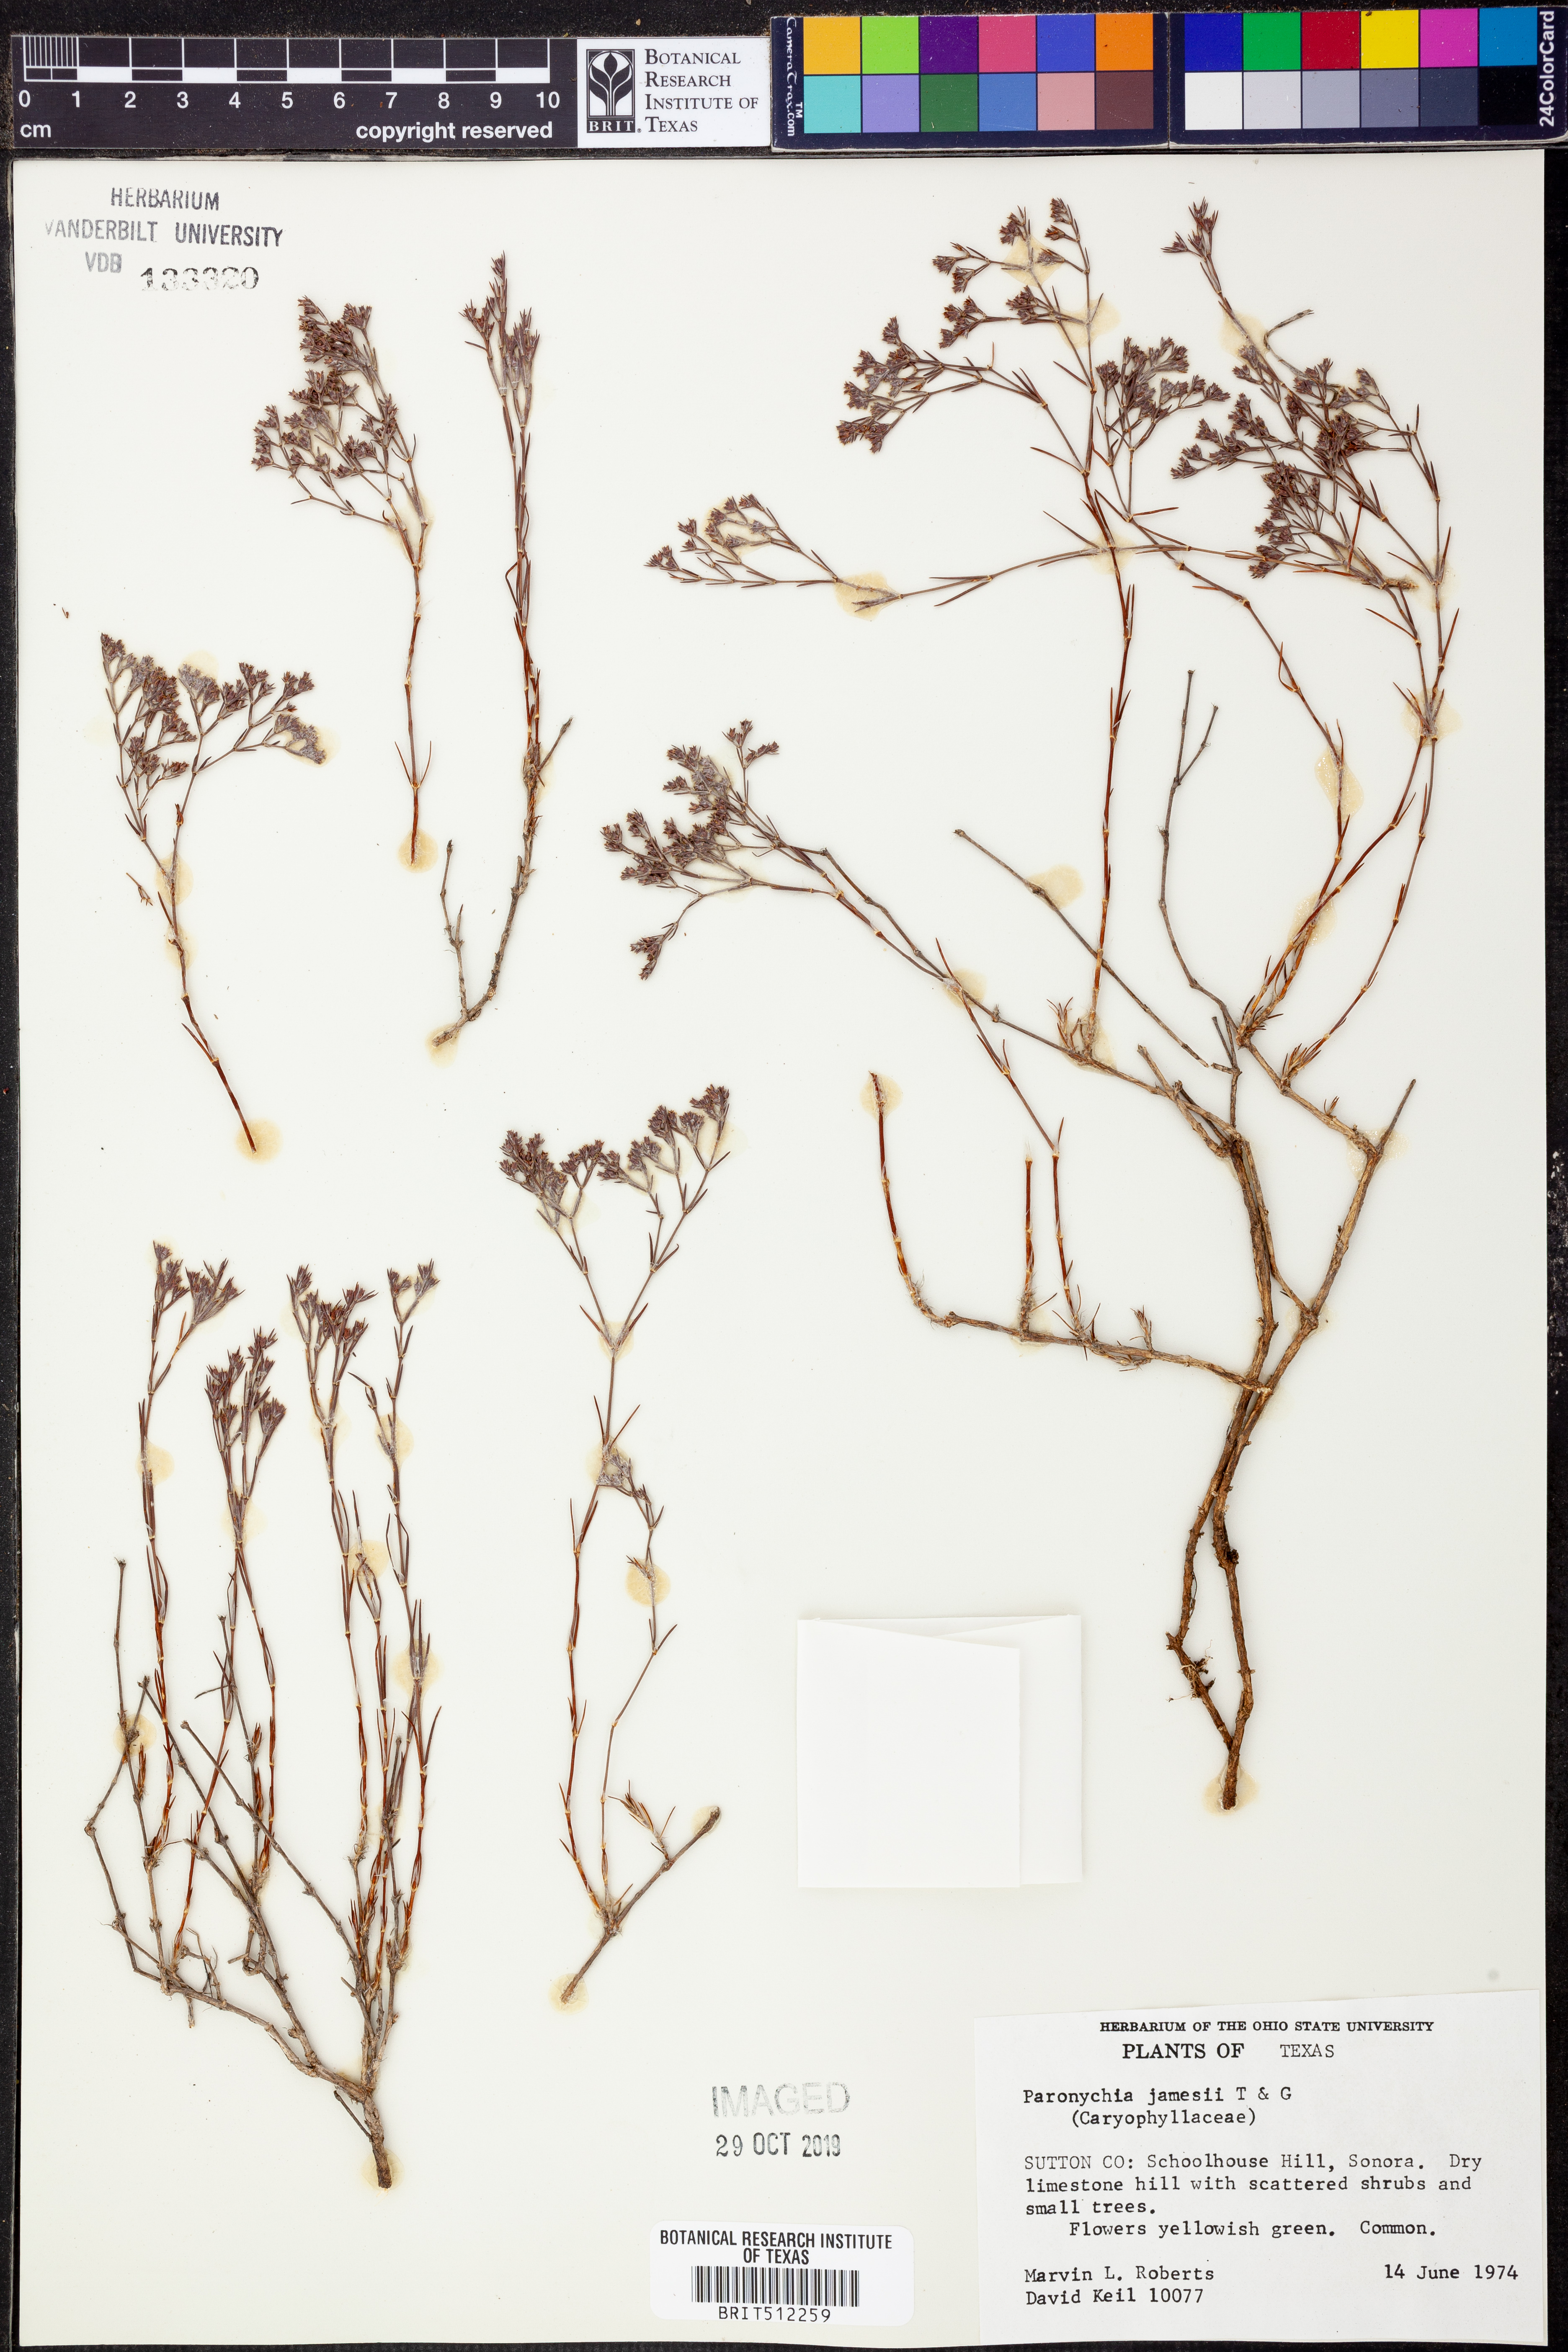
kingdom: Plantae
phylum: Tracheophyta
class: Magnoliopsida
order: Caryophyllales
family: Caryophyllaceae
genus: Paronychia
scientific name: Paronychia jamesii
